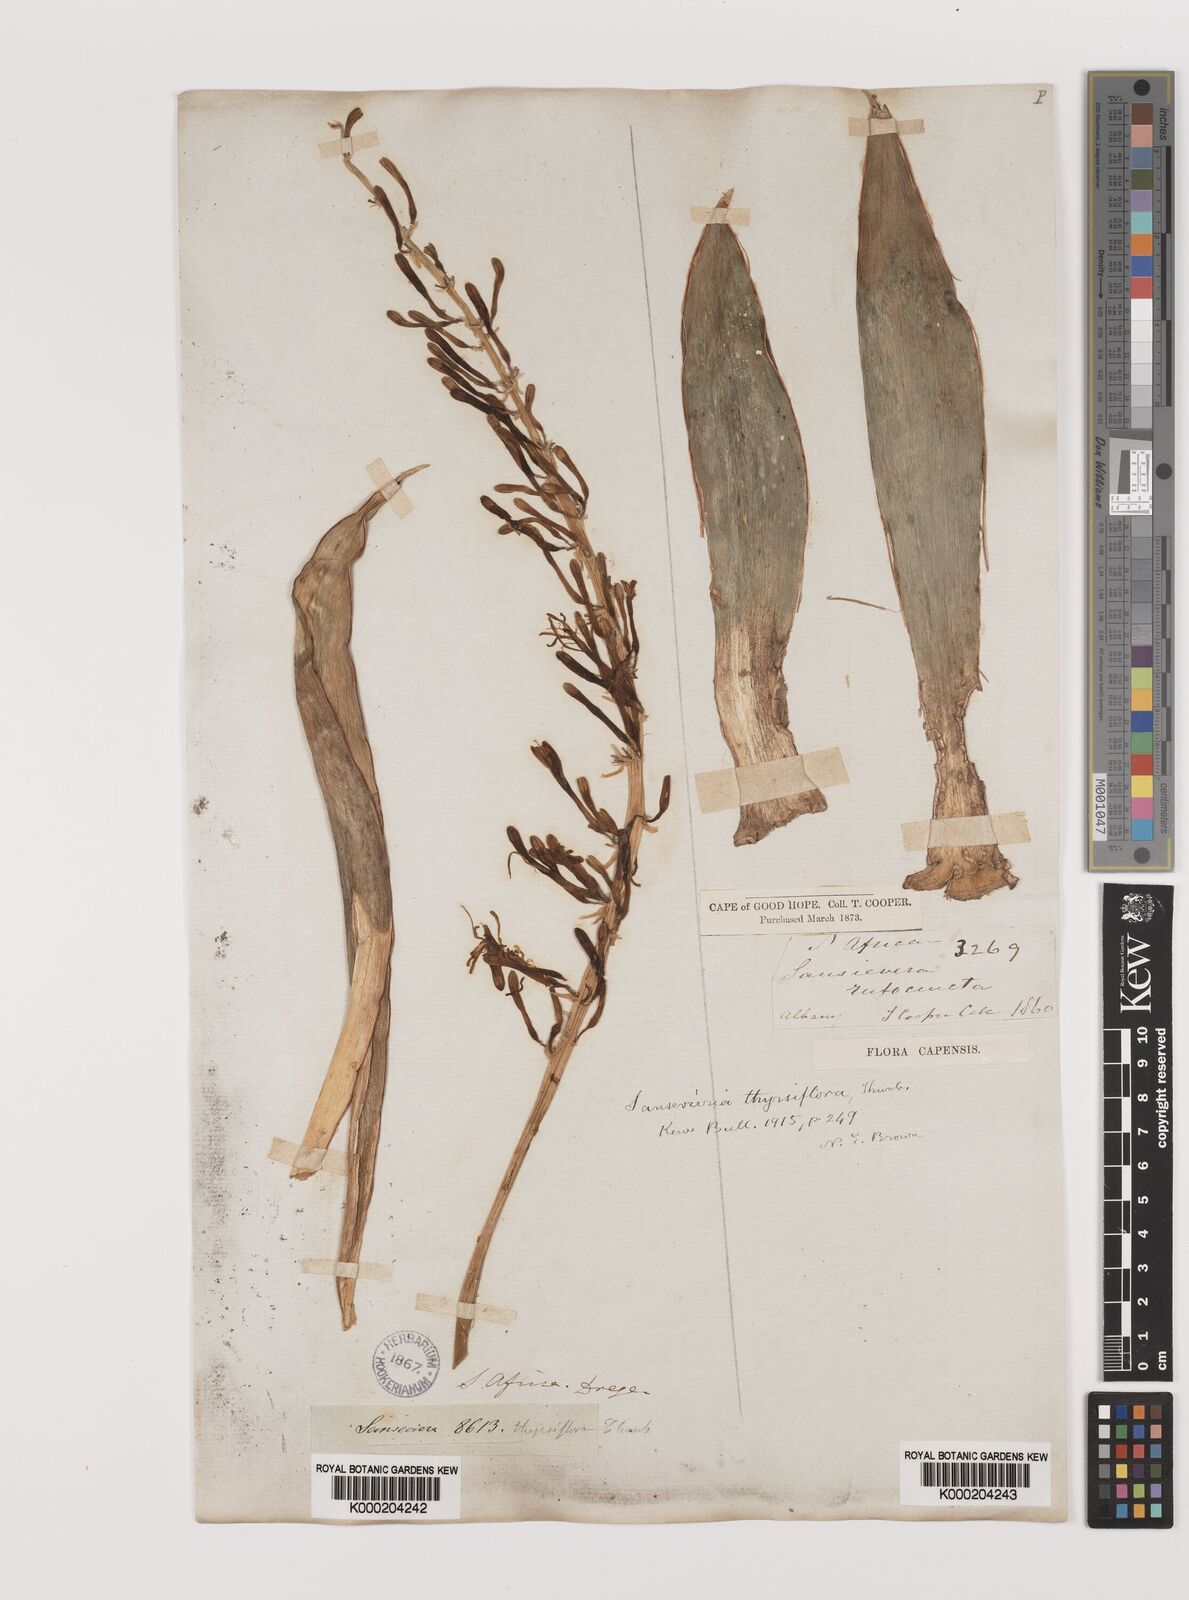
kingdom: Plantae
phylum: Tracheophyta
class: Liliopsida
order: Asparagales
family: Asparagaceae
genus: Dracaena
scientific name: Dracaena hyacinthoides
